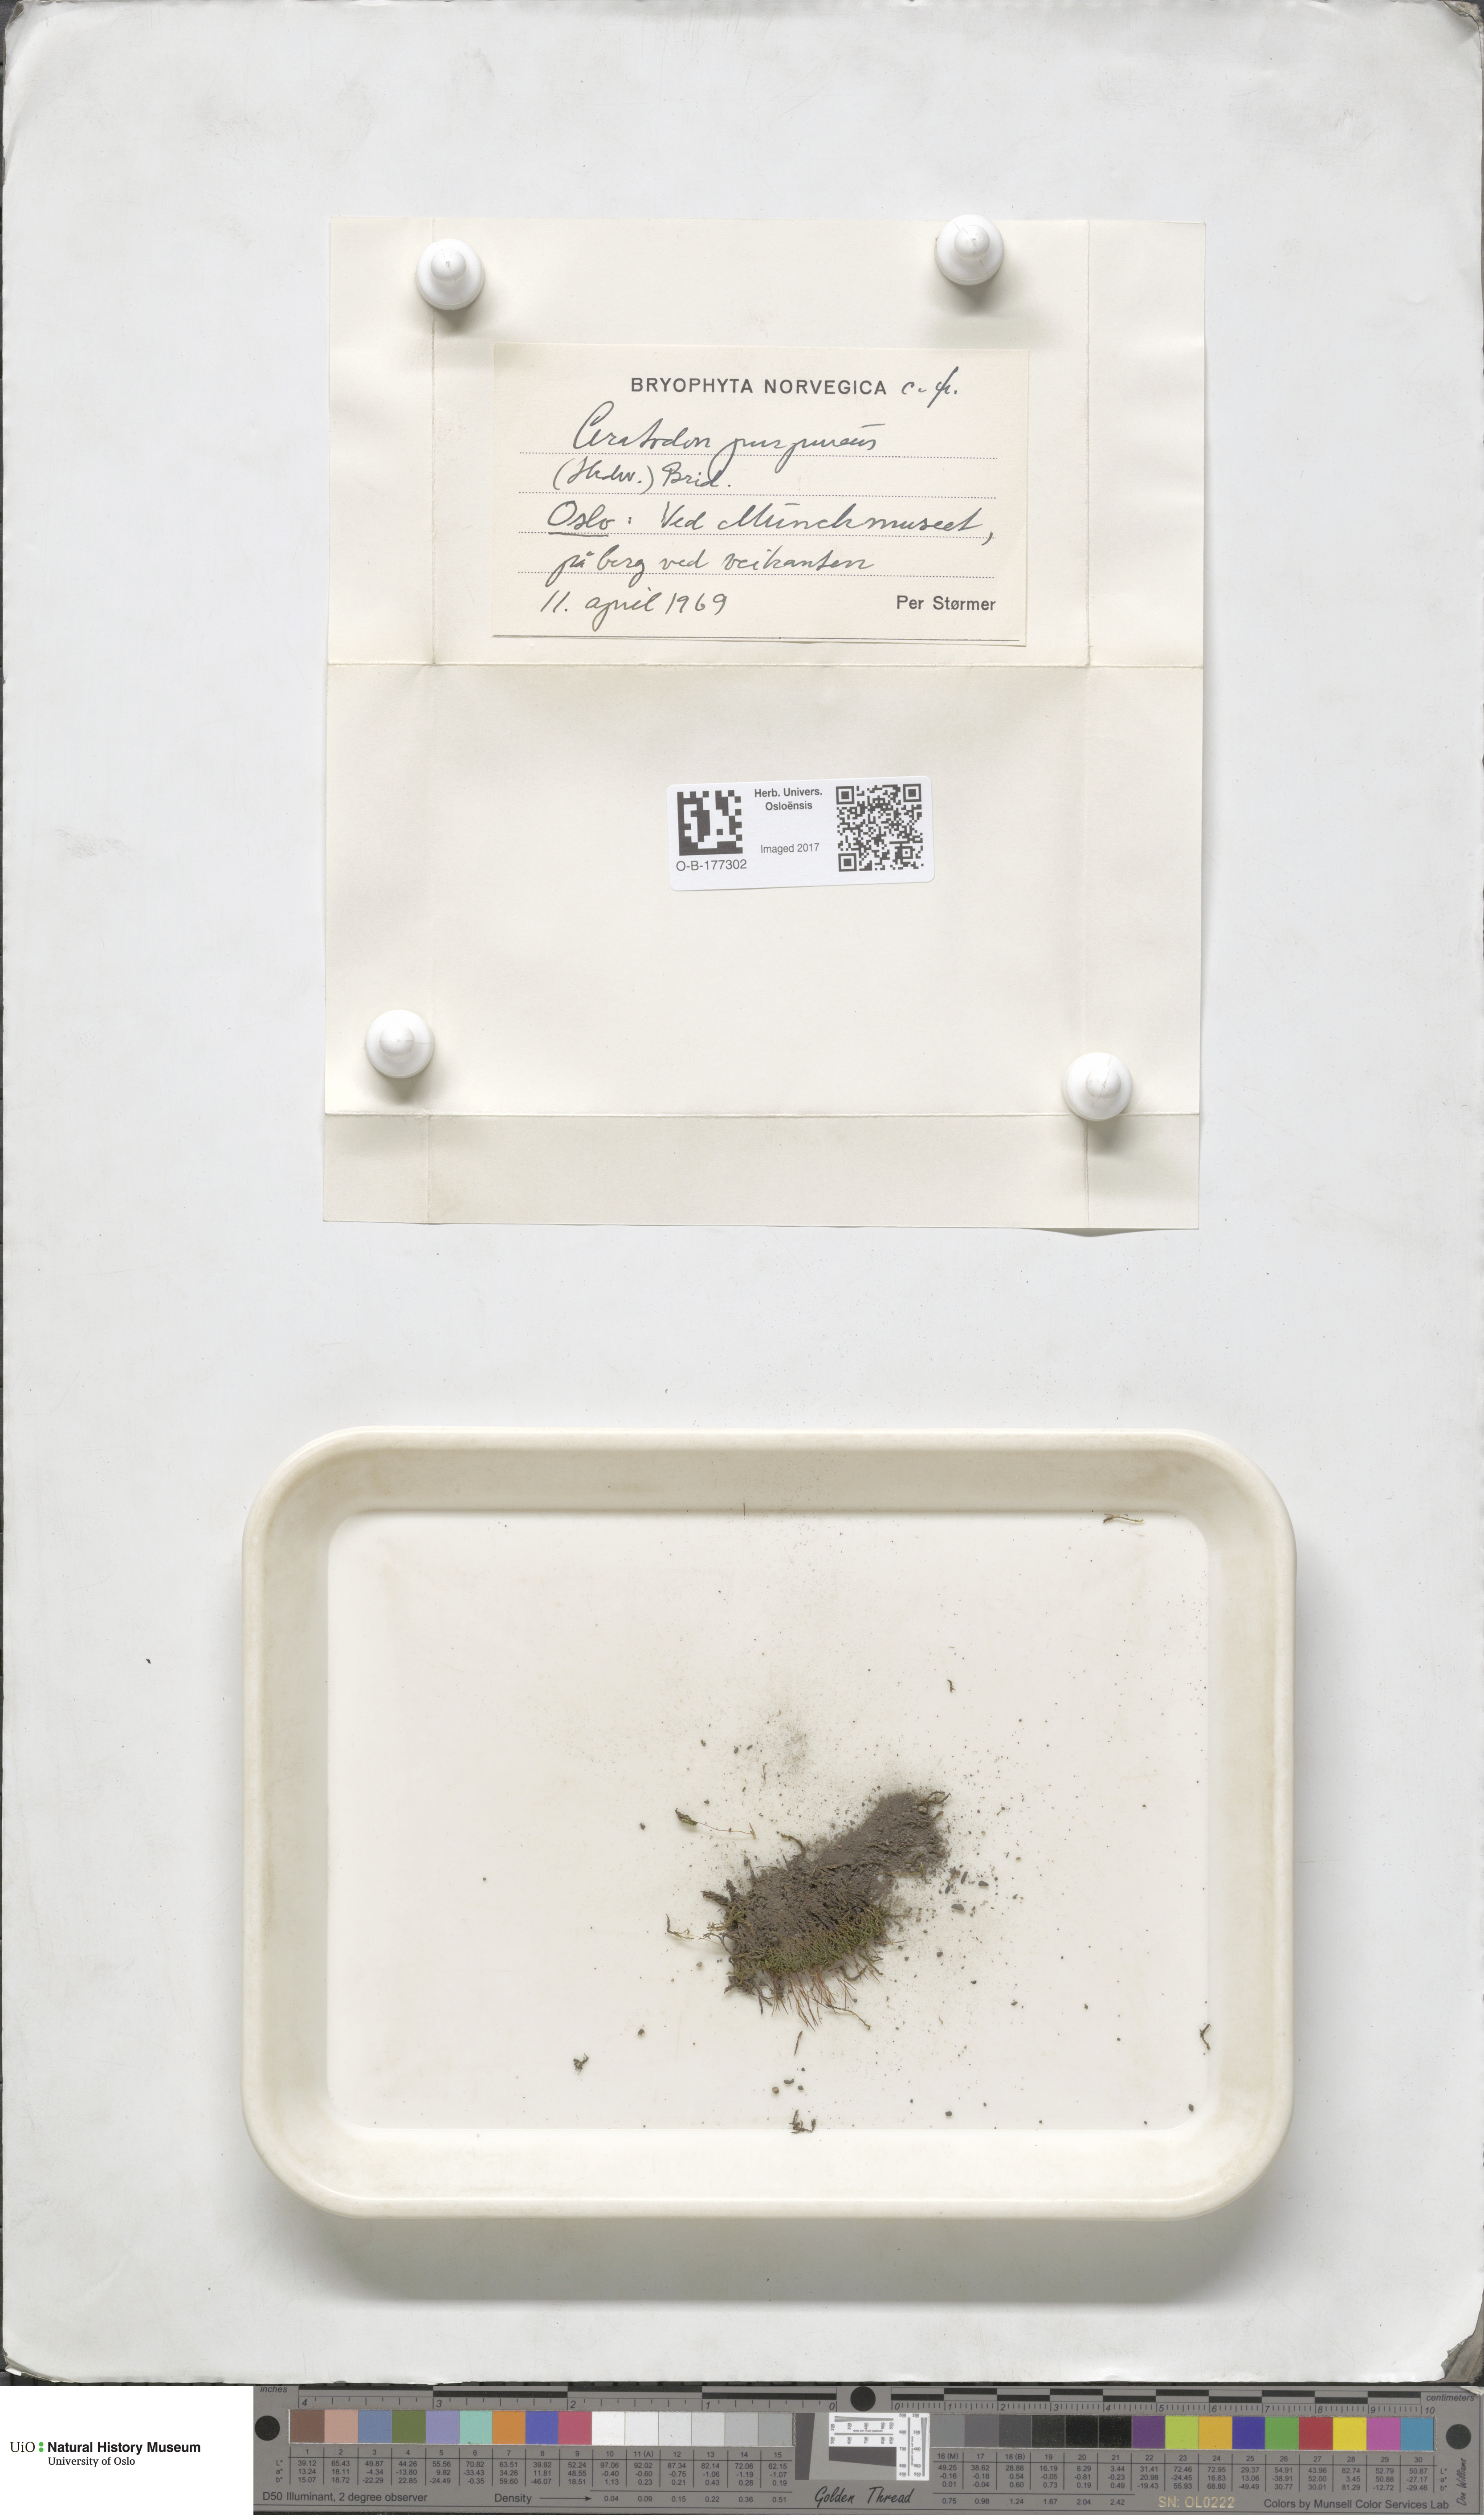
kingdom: Plantae
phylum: Bryophyta
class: Bryopsida
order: Dicranales
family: Ditrichaceae
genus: Ceratodon
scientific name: Ceratodon purpureus
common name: Redshank
